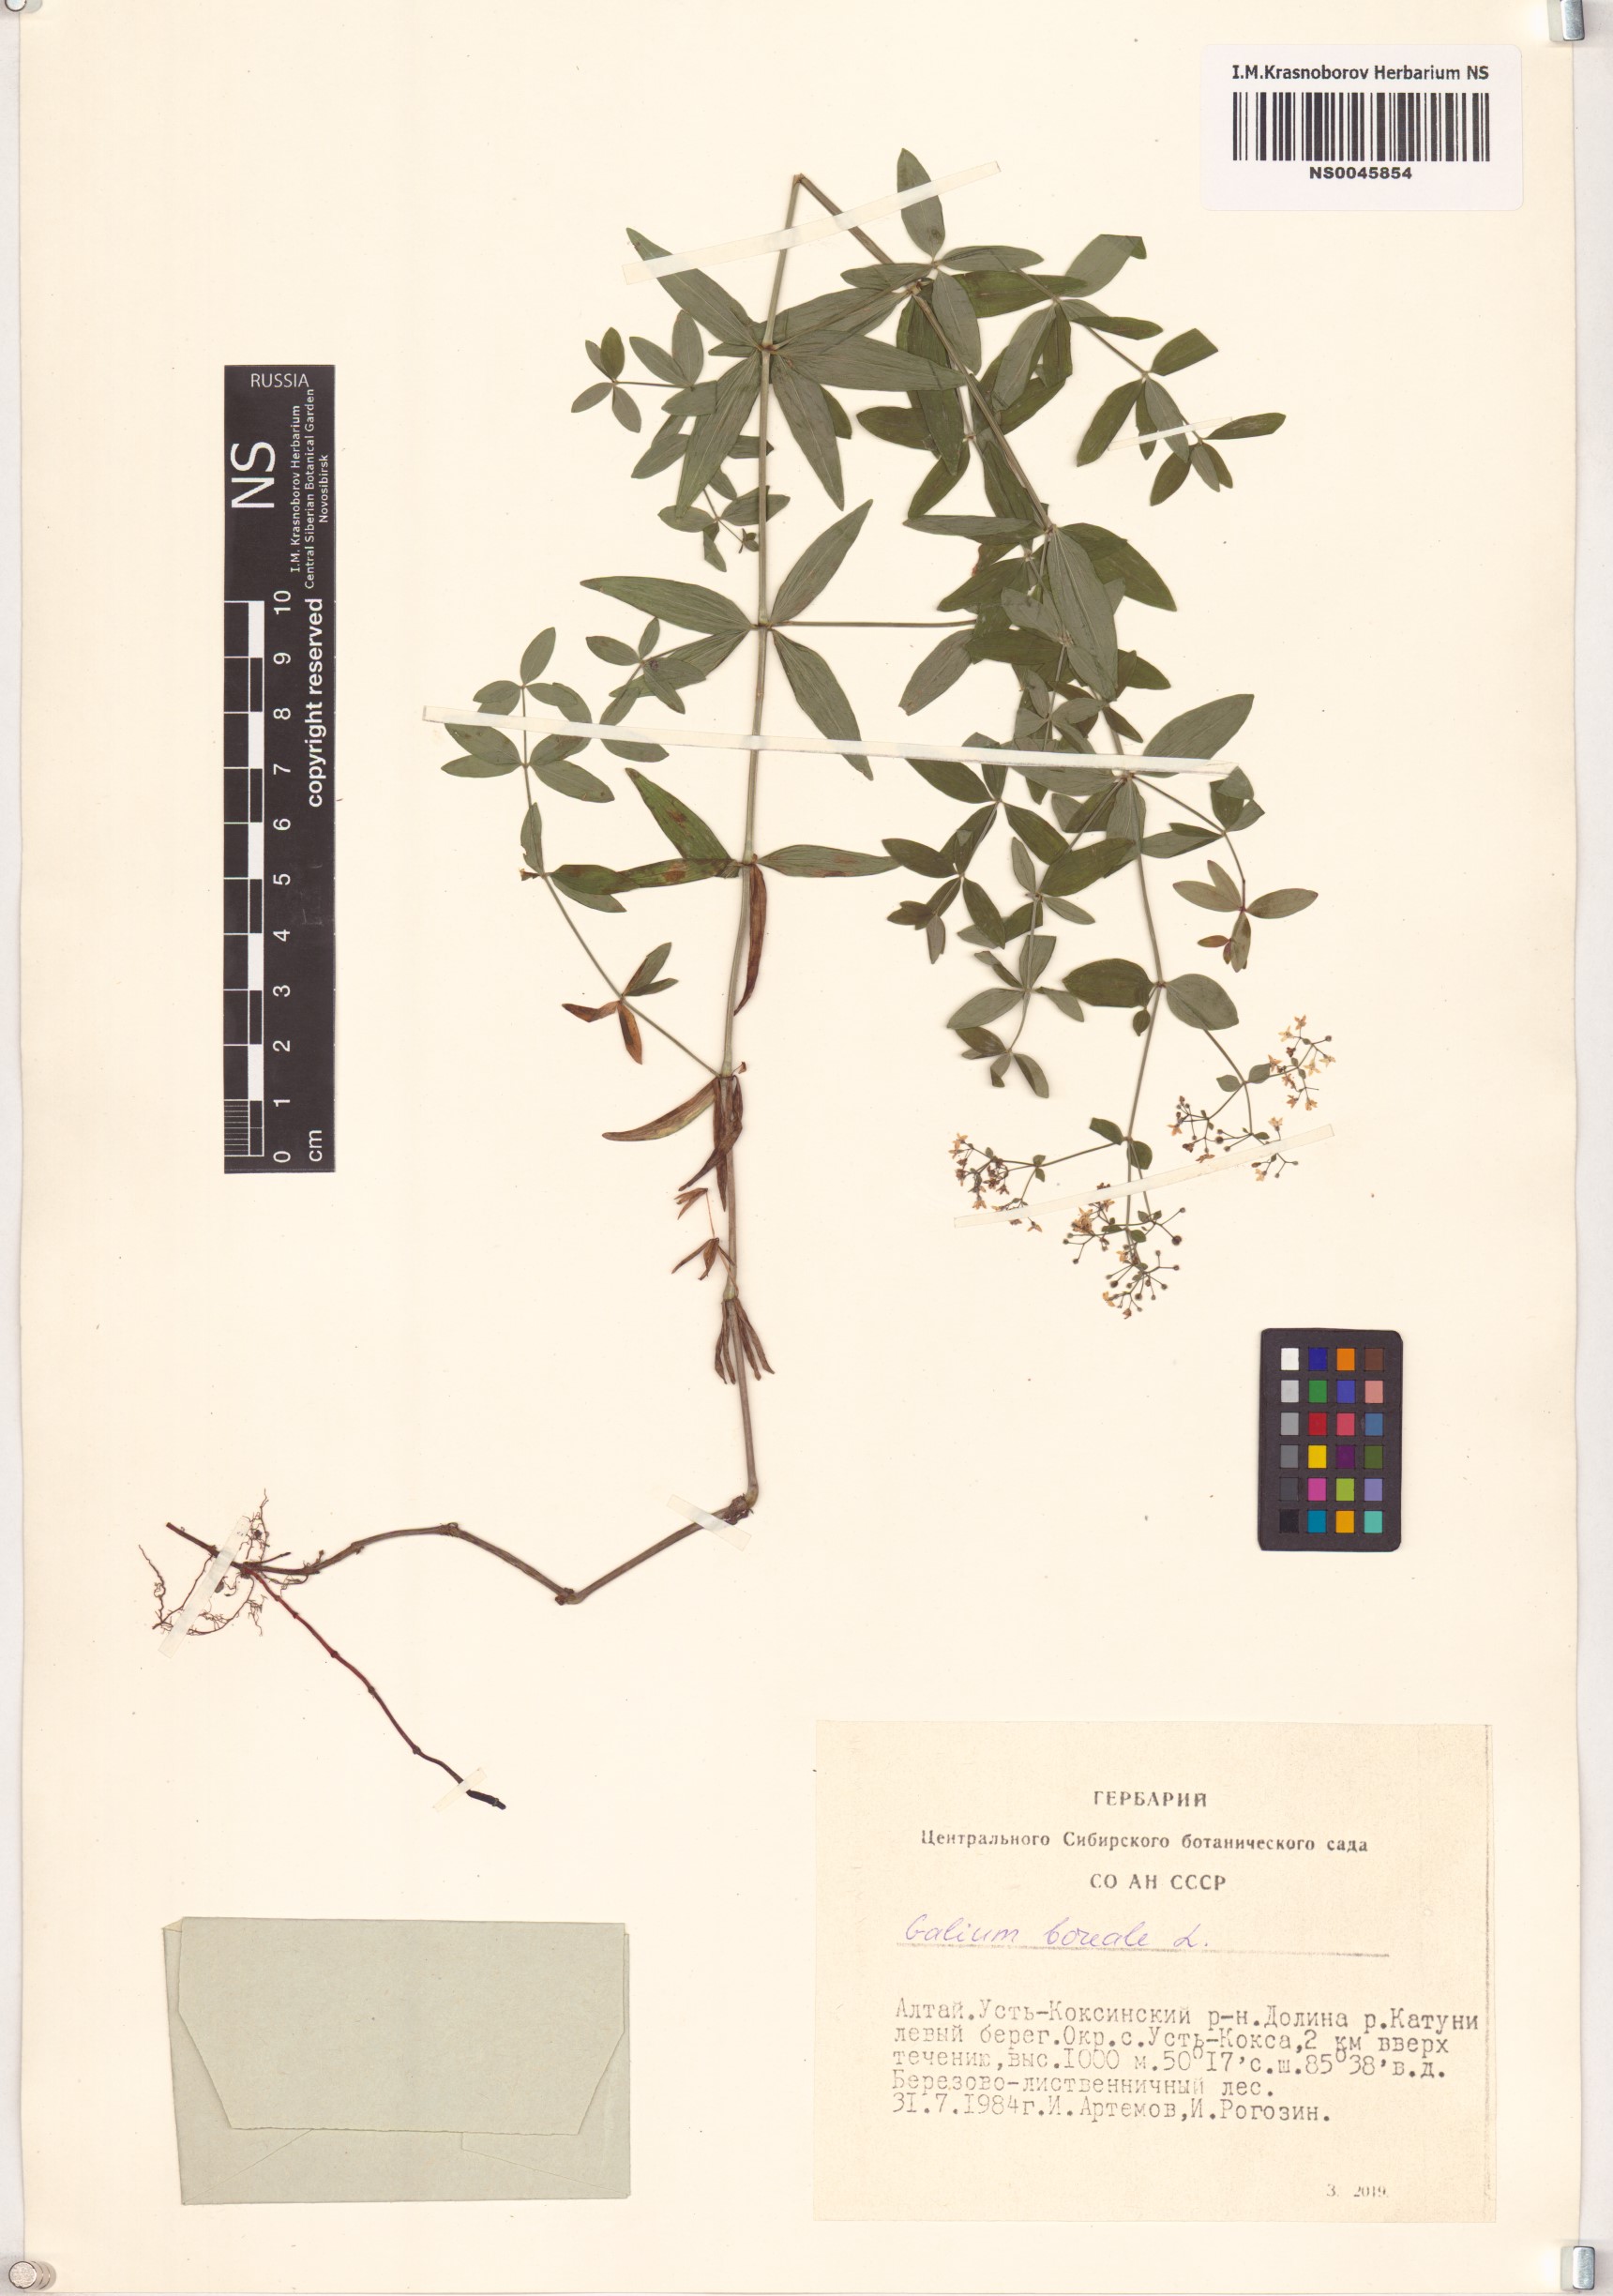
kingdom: Plantae
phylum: Tracheophyta
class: Magnoliopsida
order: Gentianales
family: Rubiaceae
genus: Galium
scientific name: Galium boreale
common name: Northern bedstraw
